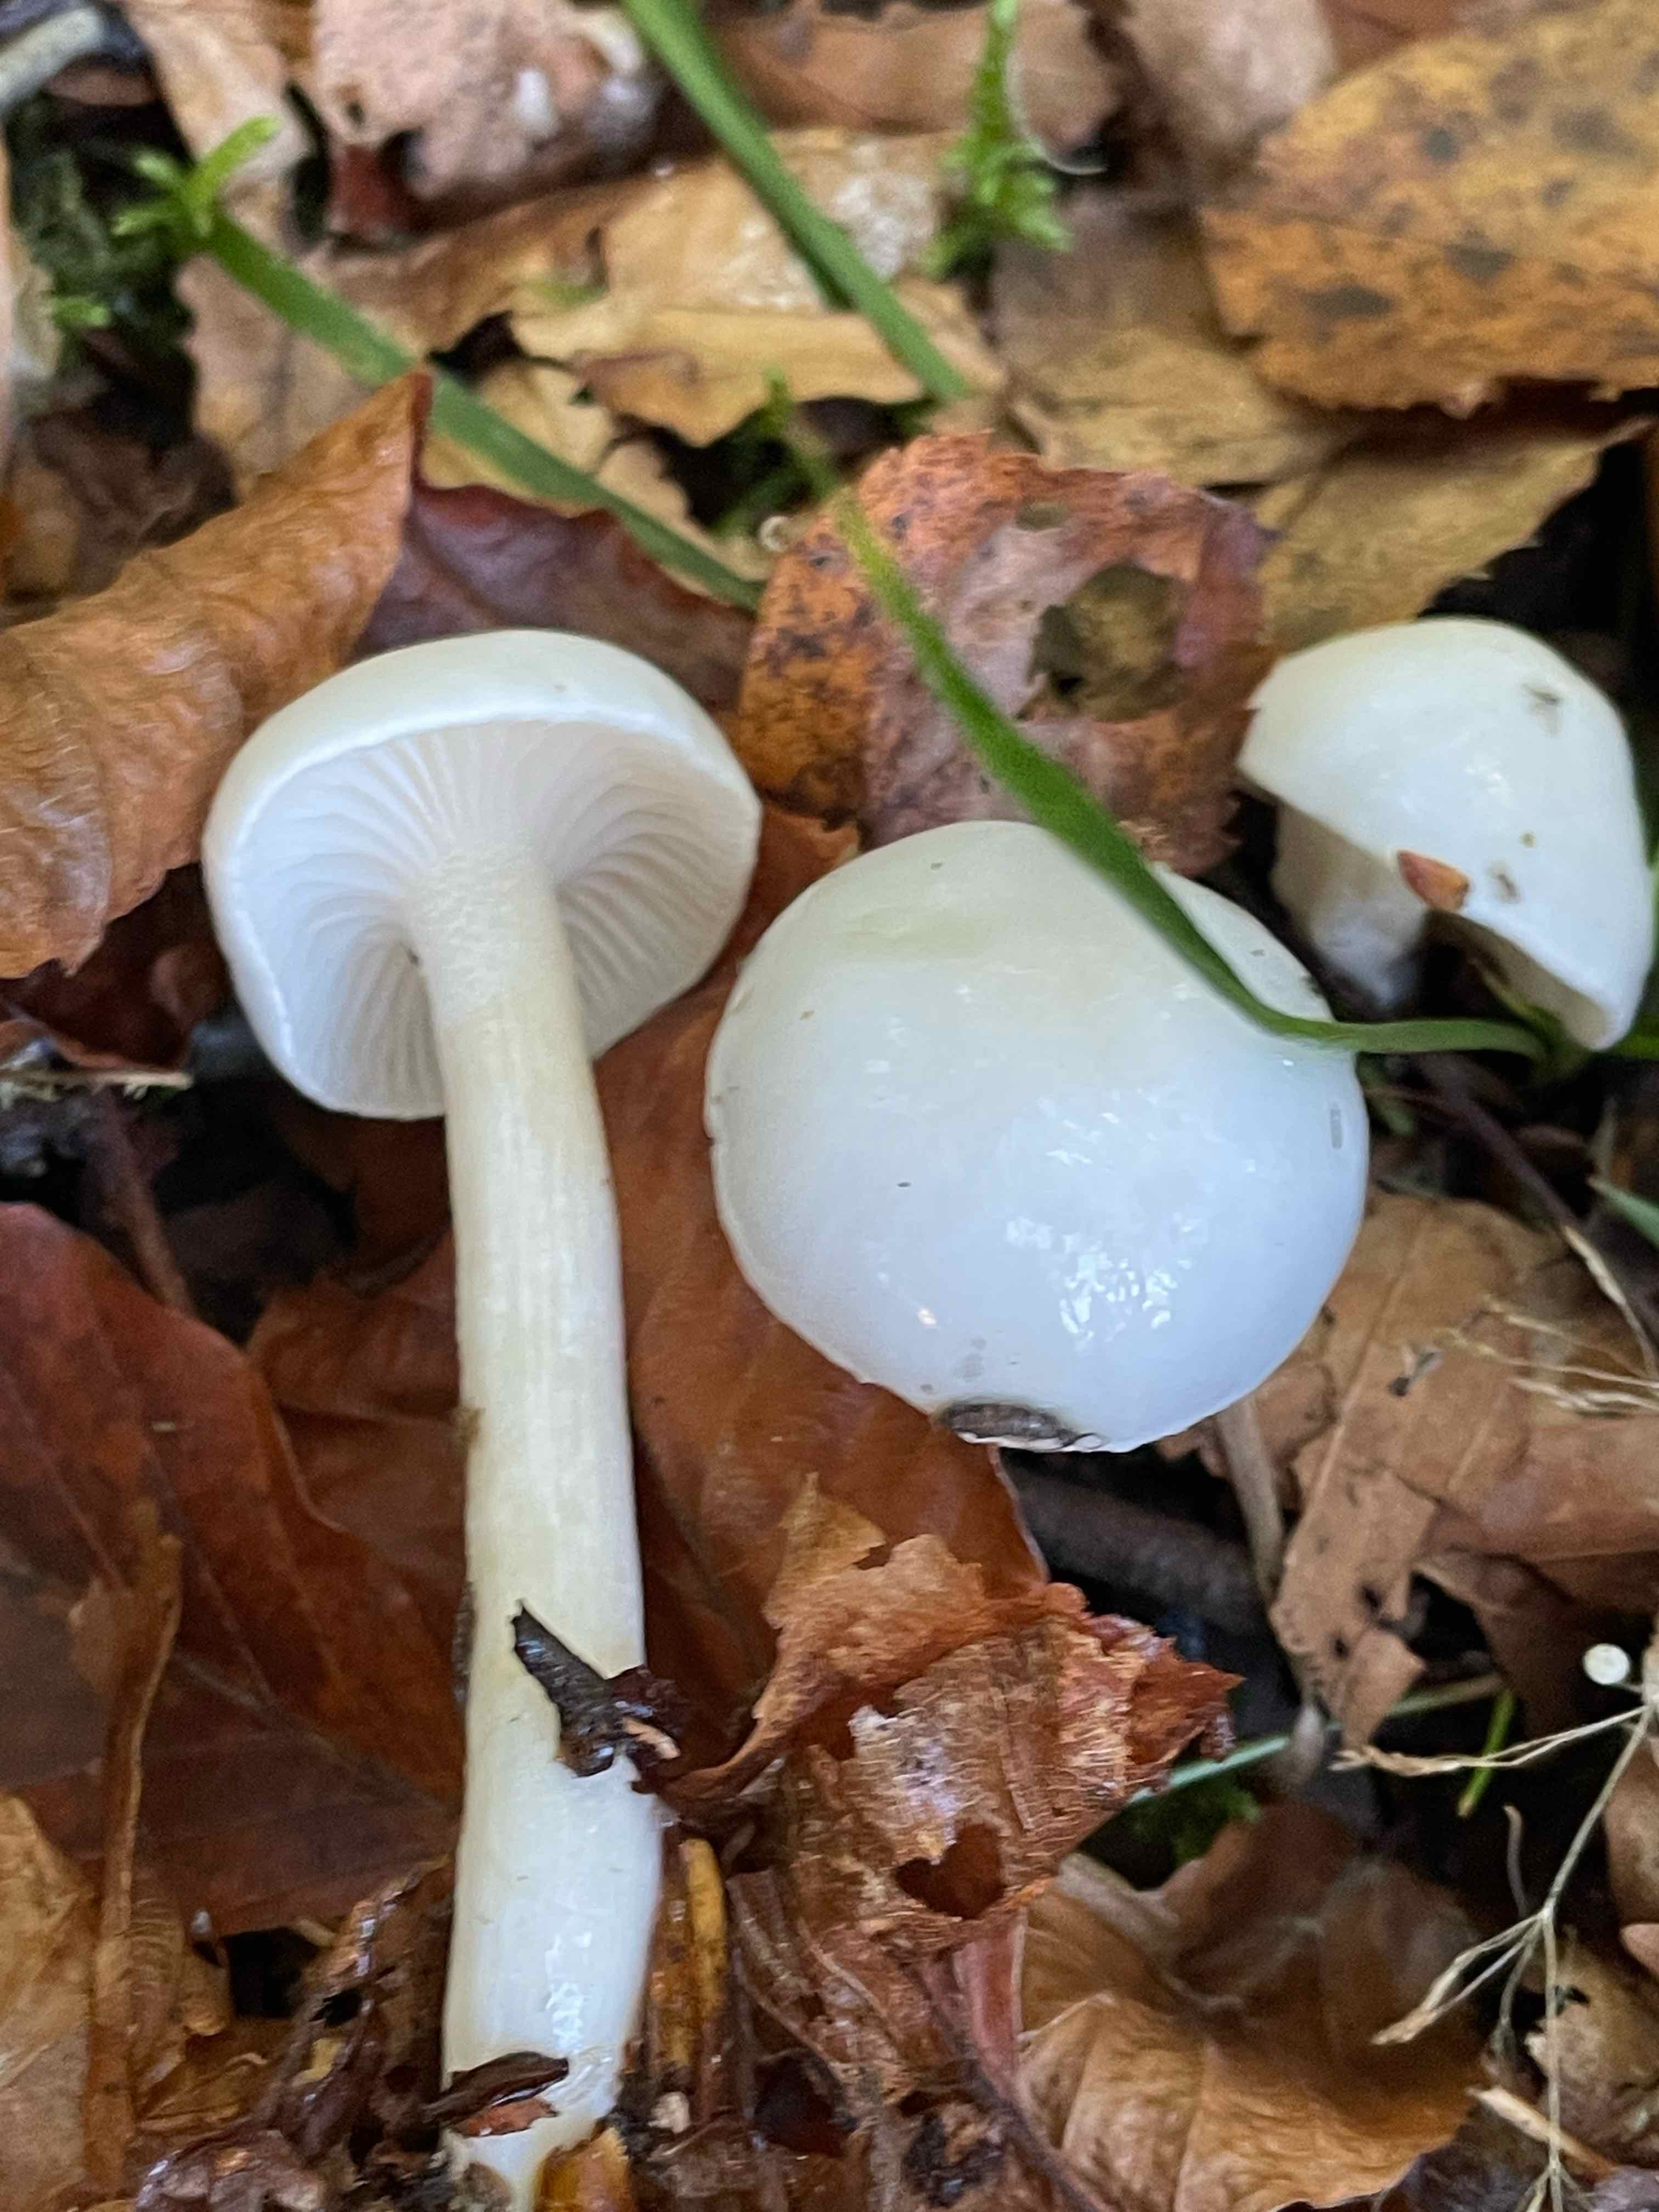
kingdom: Fungi
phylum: Basidiomycota
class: Agaricomycetes
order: Agaricales
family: Hygrophoraceae
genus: Hygrophorus
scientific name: Hygrophorus eburneus
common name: elfenbens-sneglehat
